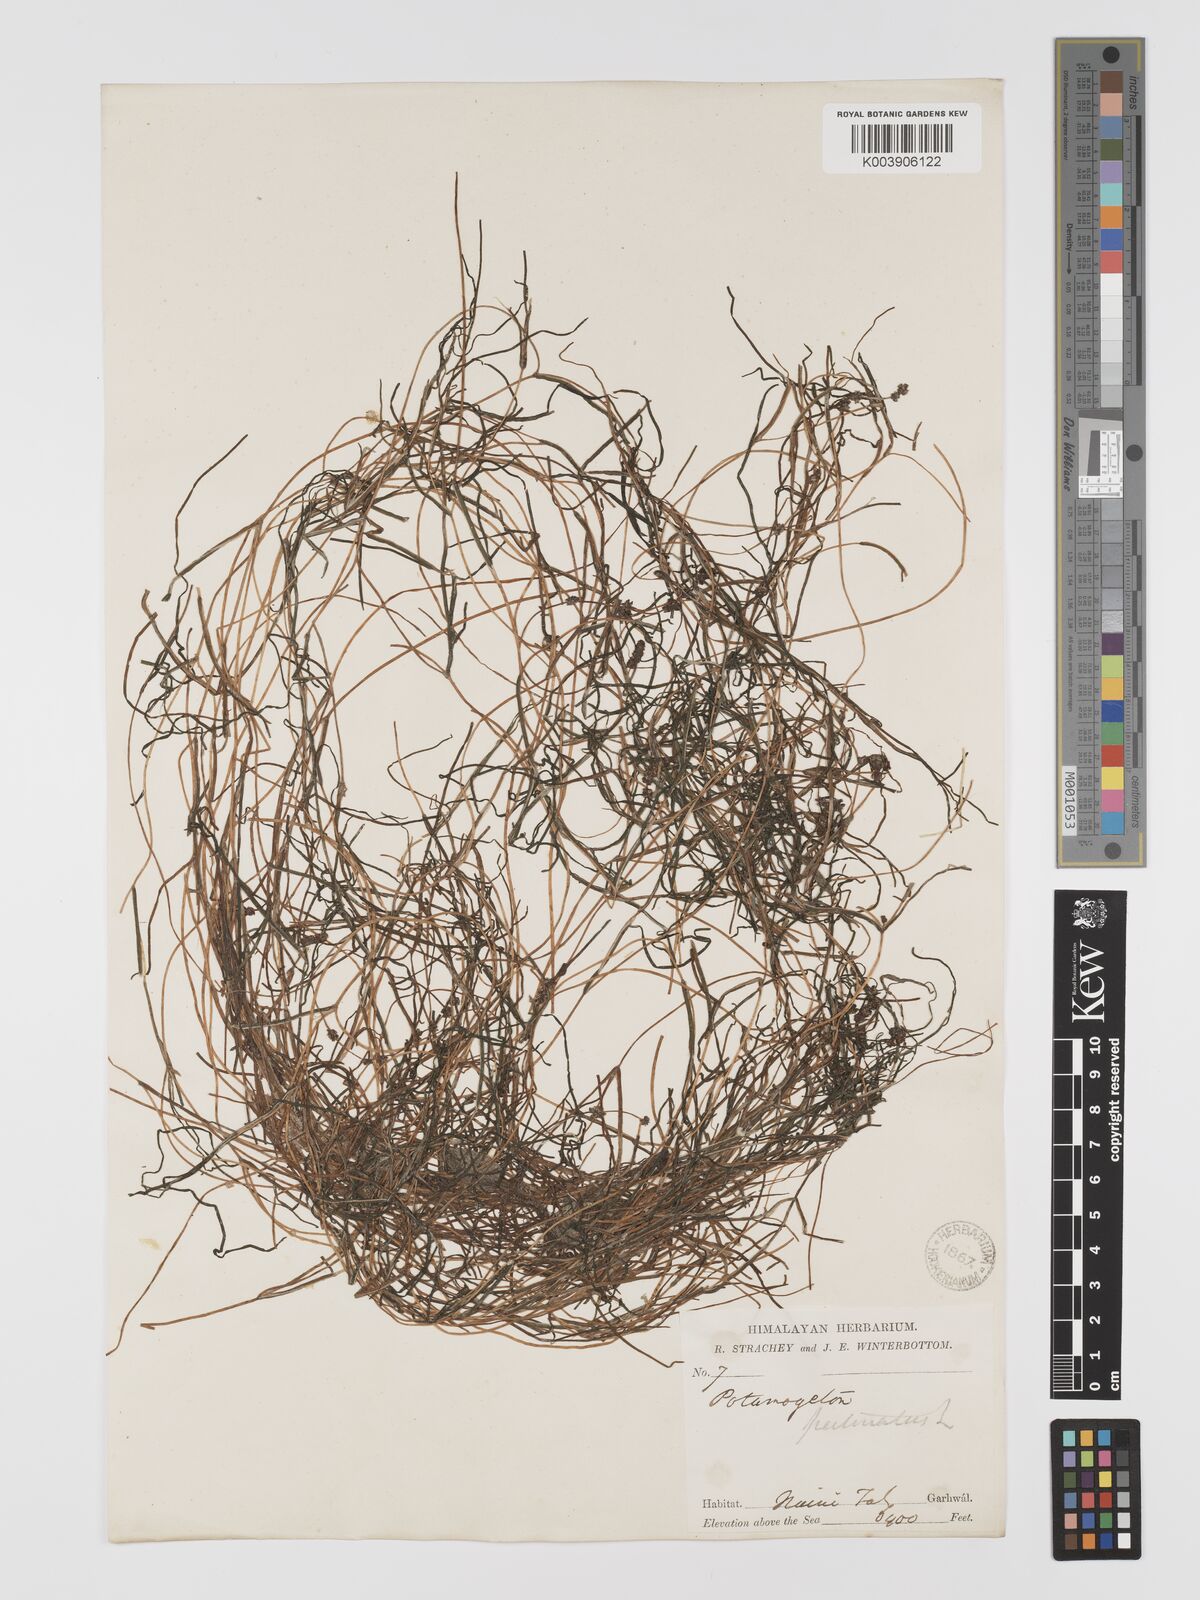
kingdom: Plantae
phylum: Tracheophyta
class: Liliopsida
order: Alismatales
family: Potamogetonaceae
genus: Stuckenia
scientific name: Stuckenia pectinata
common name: Sago pondweed
